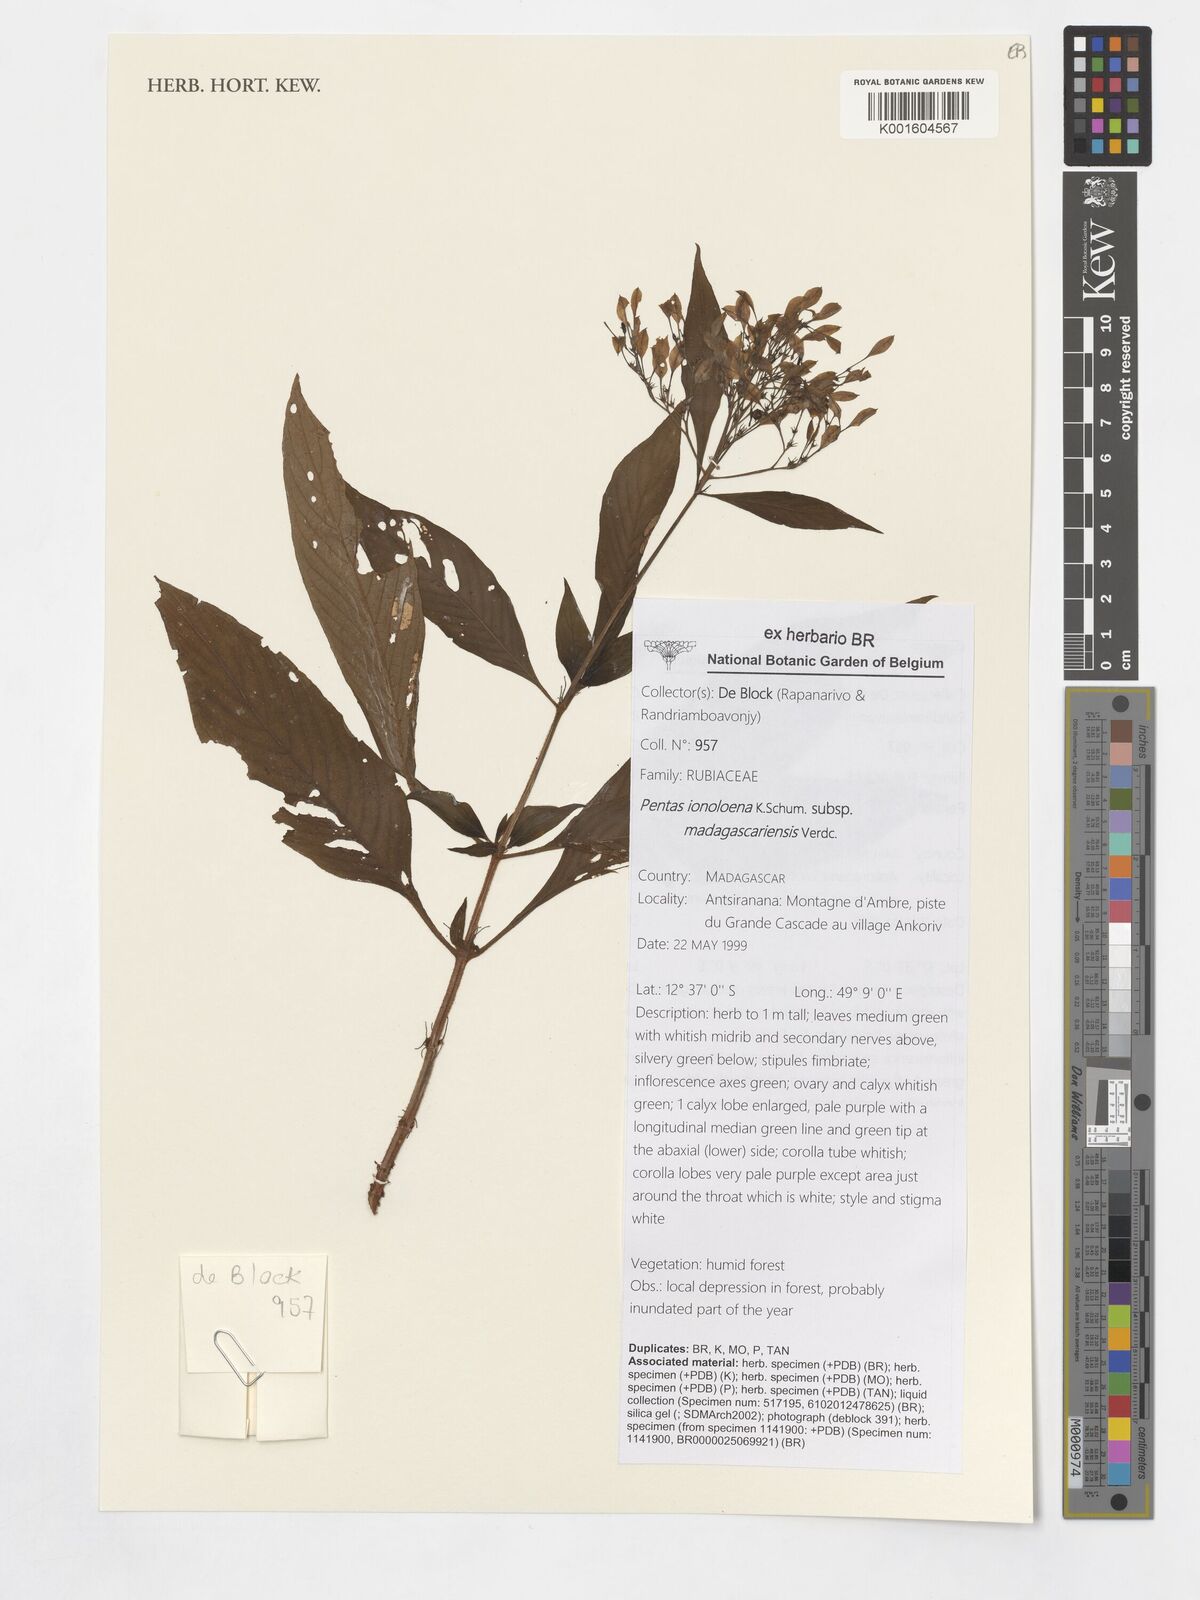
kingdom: Plantae
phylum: Tracheophyta
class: Magnoliopsida
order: Gentianales
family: Rubiaceae
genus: Pentas
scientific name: Pentas
